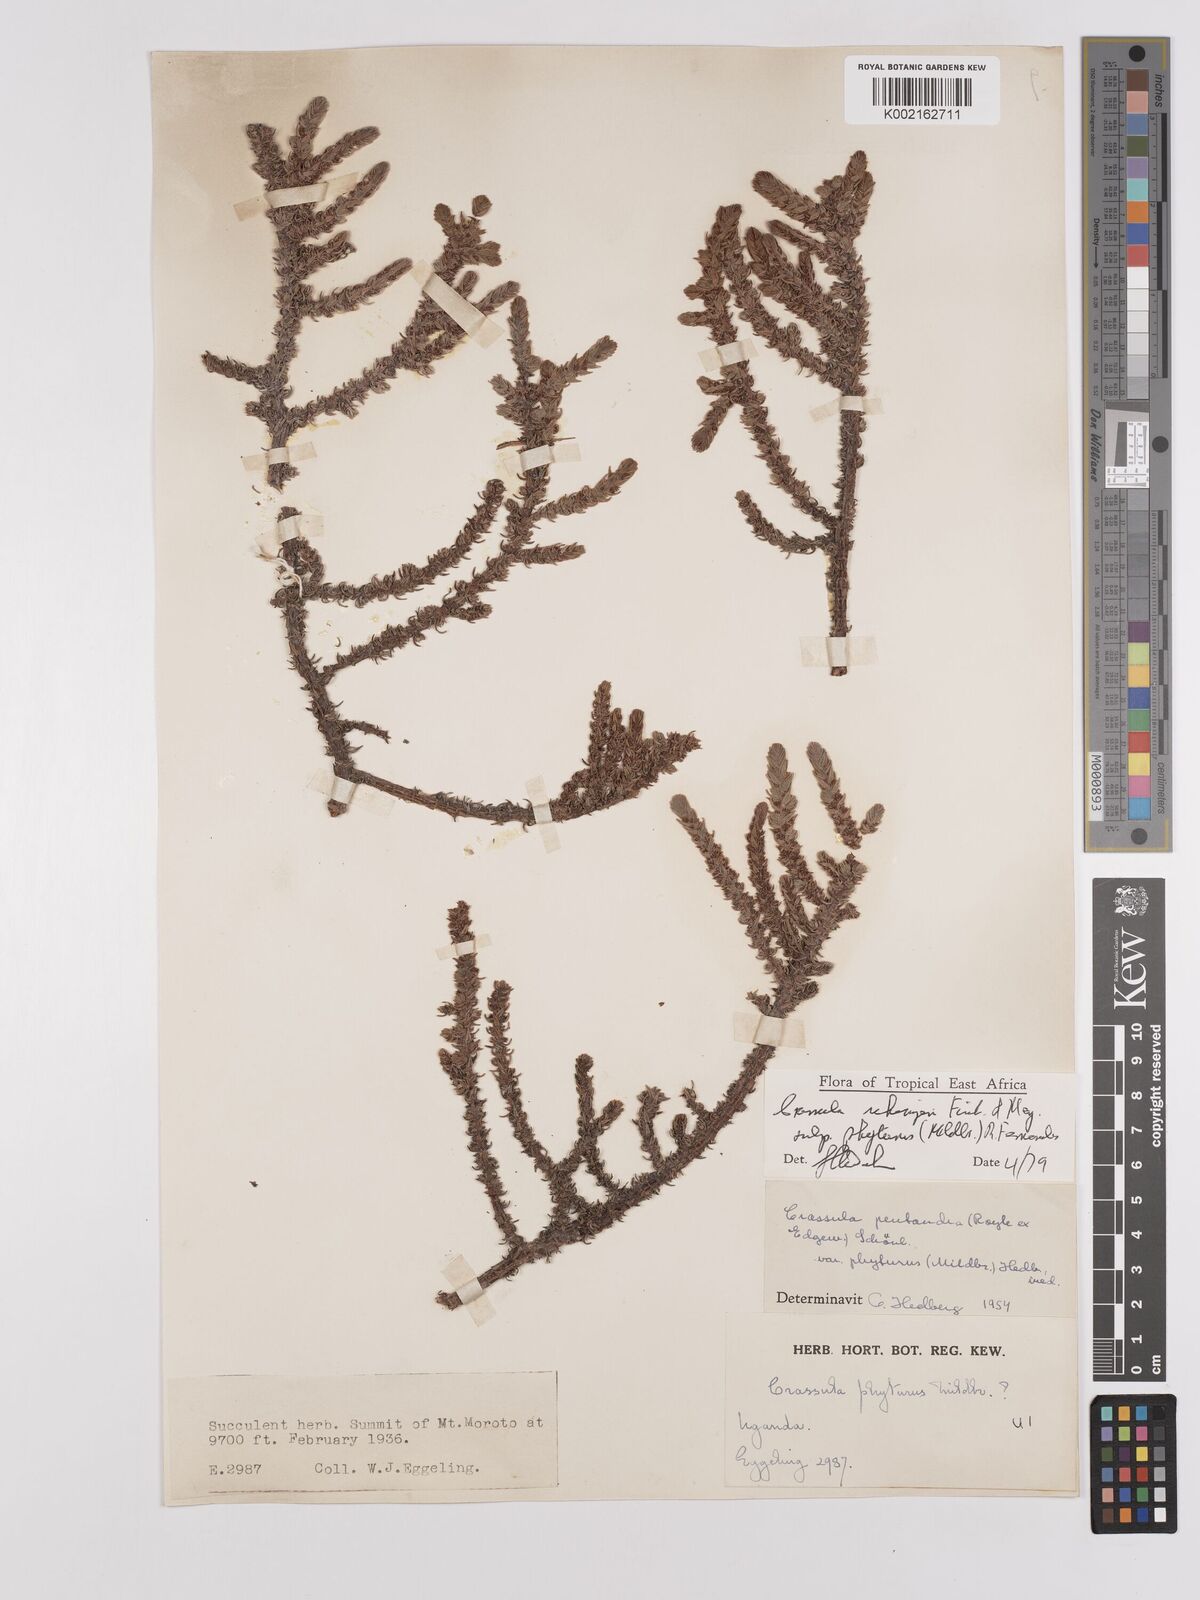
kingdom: Plantae
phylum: Tracheophyta
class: Magnoliopsida
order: Saxifragales
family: Crassulaceae
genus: Crassula
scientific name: Crassula schimperi
